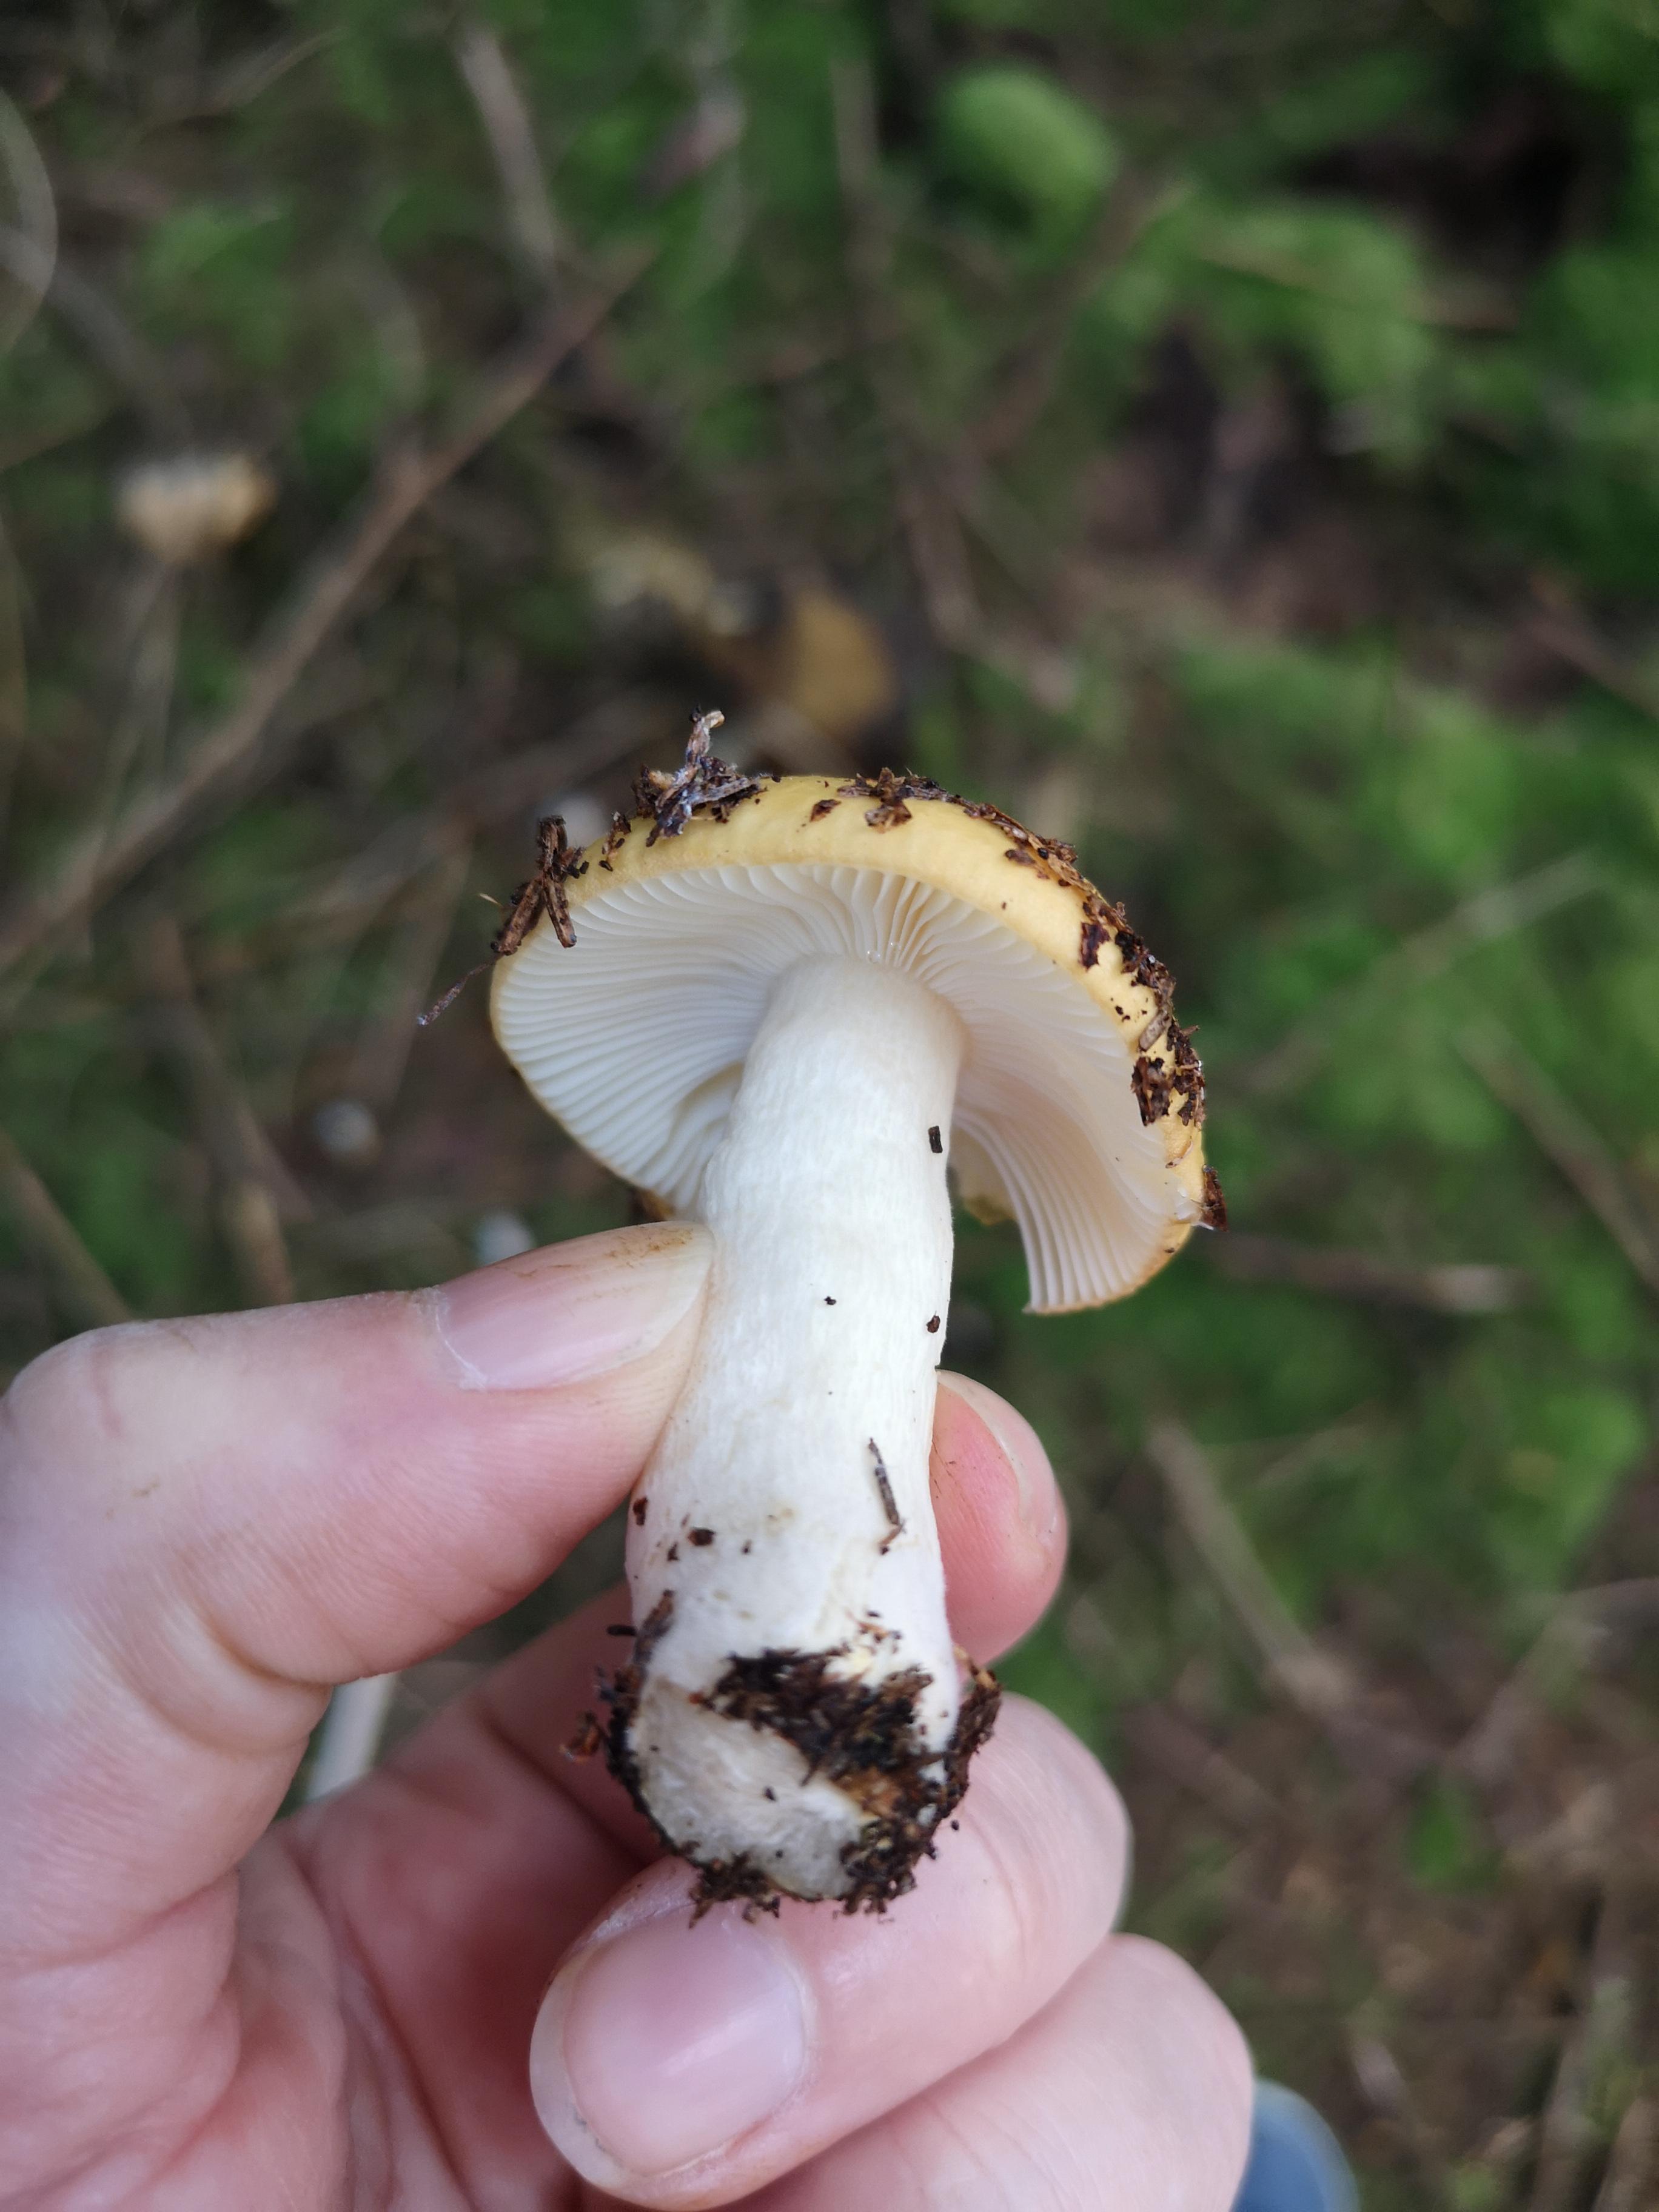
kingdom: Fungi
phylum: Basidiomycota
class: Agaricomycetes
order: Russulales
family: Russulaceae
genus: Russula
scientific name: Russula ochroleuca
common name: okkergul skørhat
